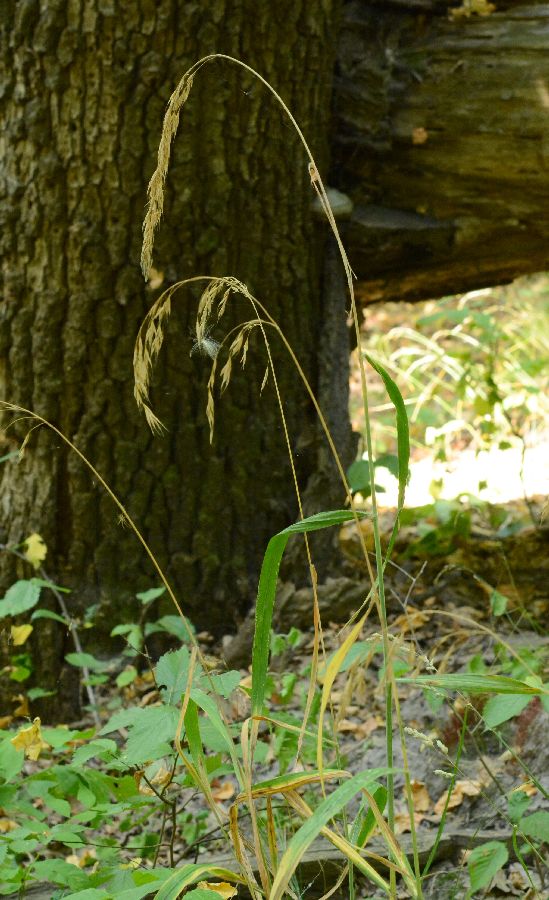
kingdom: Plantae
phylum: Tracheophyta
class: Liliopsida
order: Poales
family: Poaceae
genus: Bromus
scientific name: Bromus benekenii
